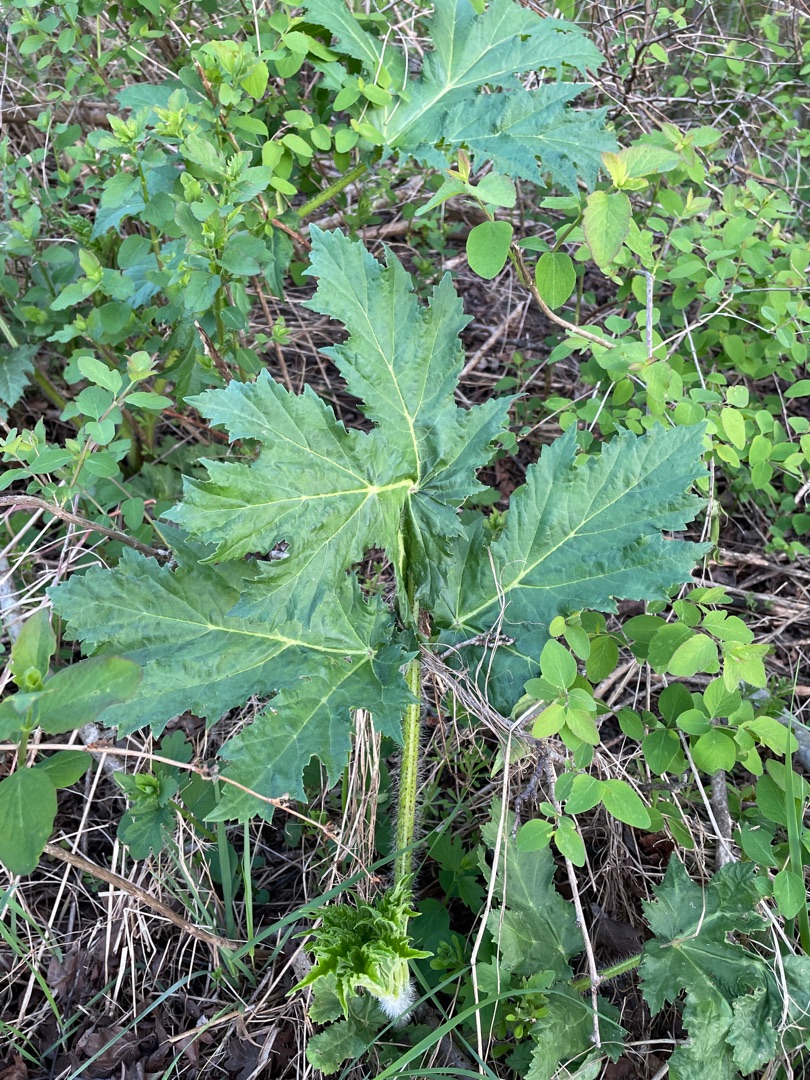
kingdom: Plantae
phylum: Tracheophyta
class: Magnoliopsida
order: Apiales
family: Apiaceae
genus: Heracleum
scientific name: Heracleum mantegazzianum
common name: Kæmpe-bjørneklo
